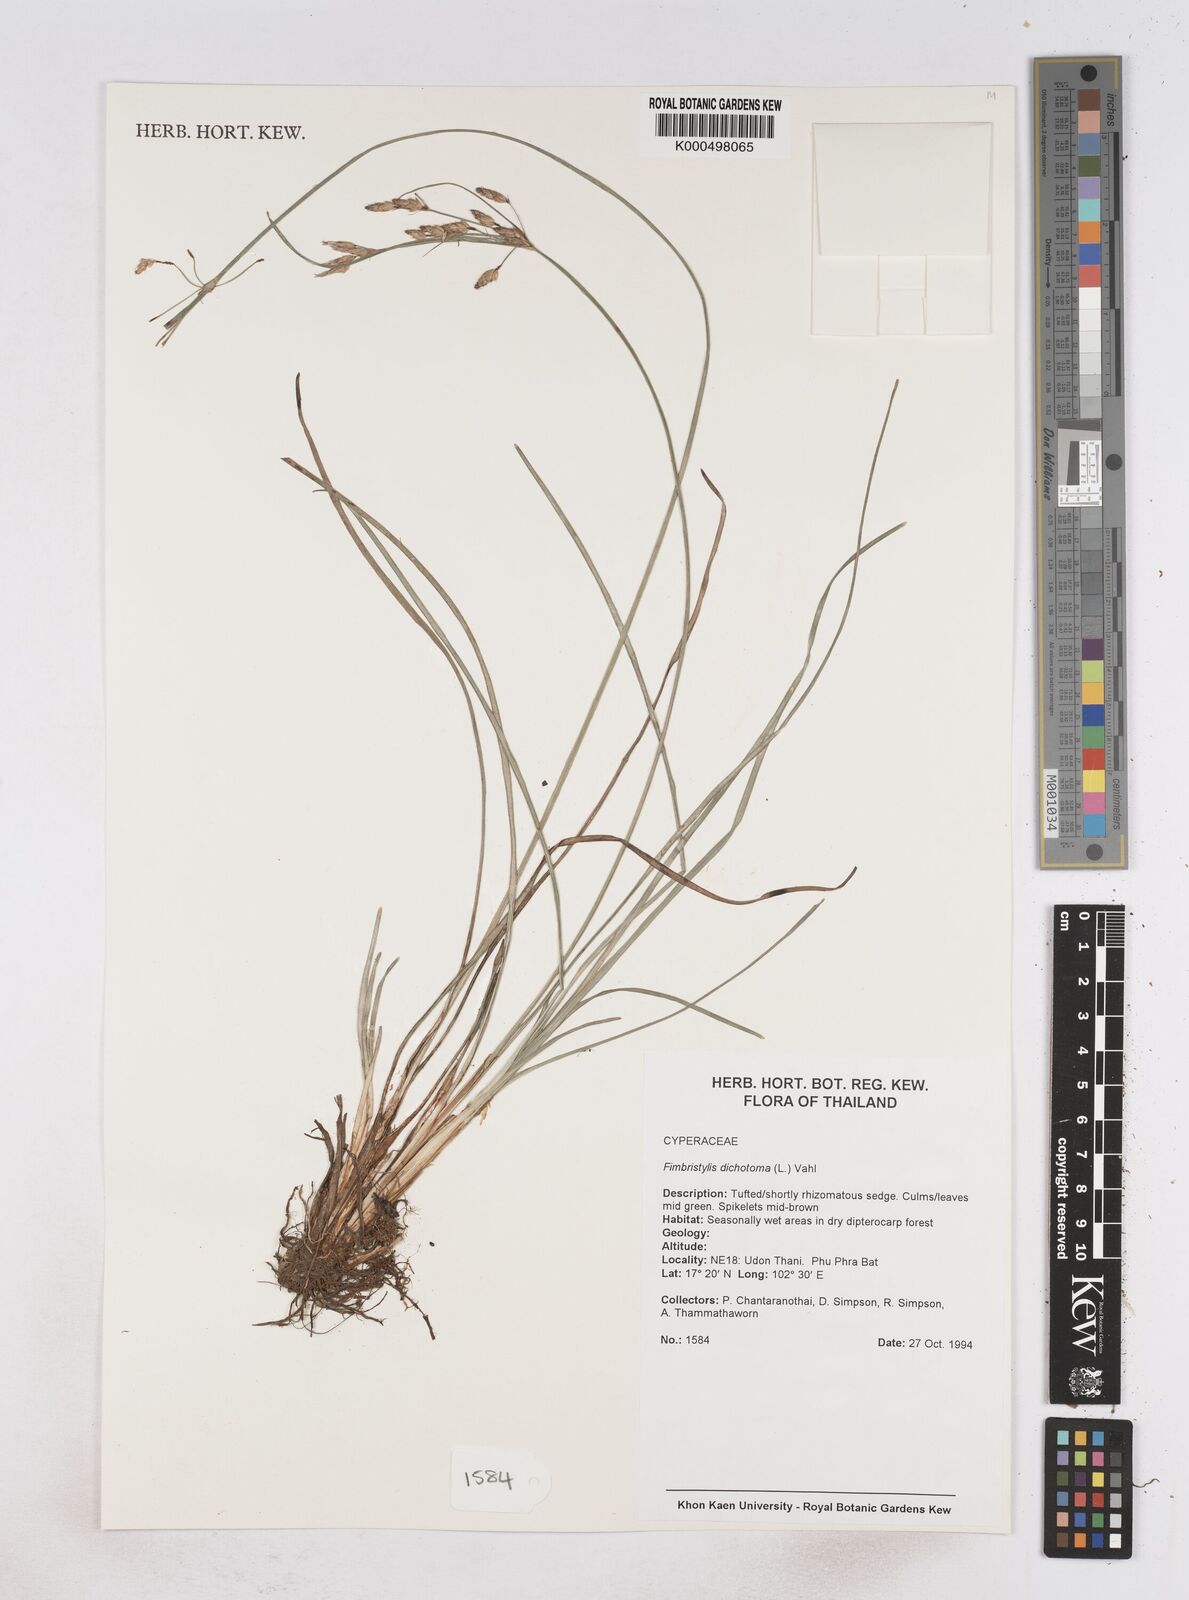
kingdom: Plantae
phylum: Tracheophyta
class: Liliopsida
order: Poales
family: Cyperaceae
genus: Fimbristylis
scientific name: Fimbristylis dichotoma
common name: Forked fimbry
